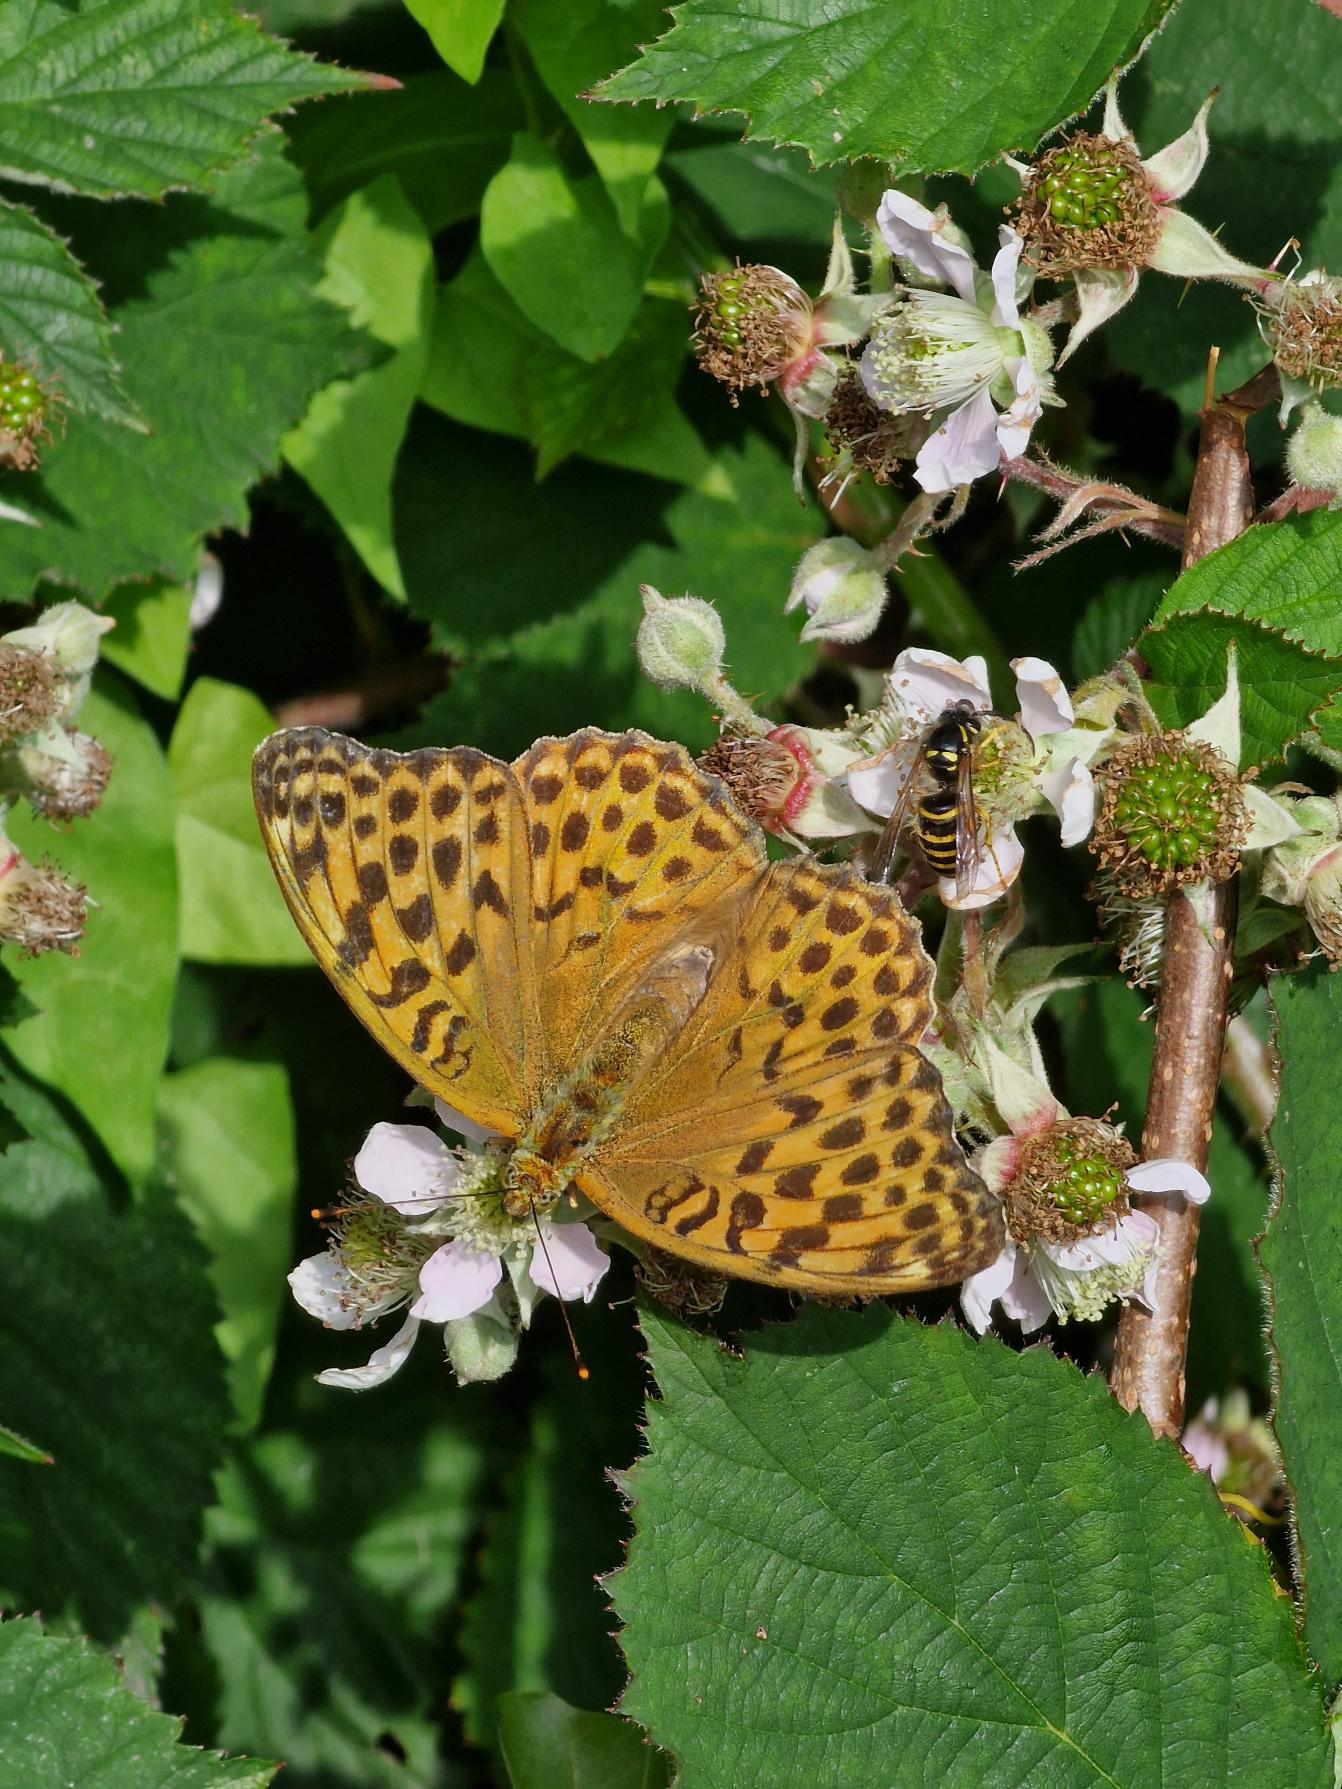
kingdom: Animalia
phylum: Arthropoda
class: Insecta
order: Lepidoptera
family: Nymphalidae
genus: Argynnis
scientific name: Argynnis paphia
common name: Kejserkåbe
